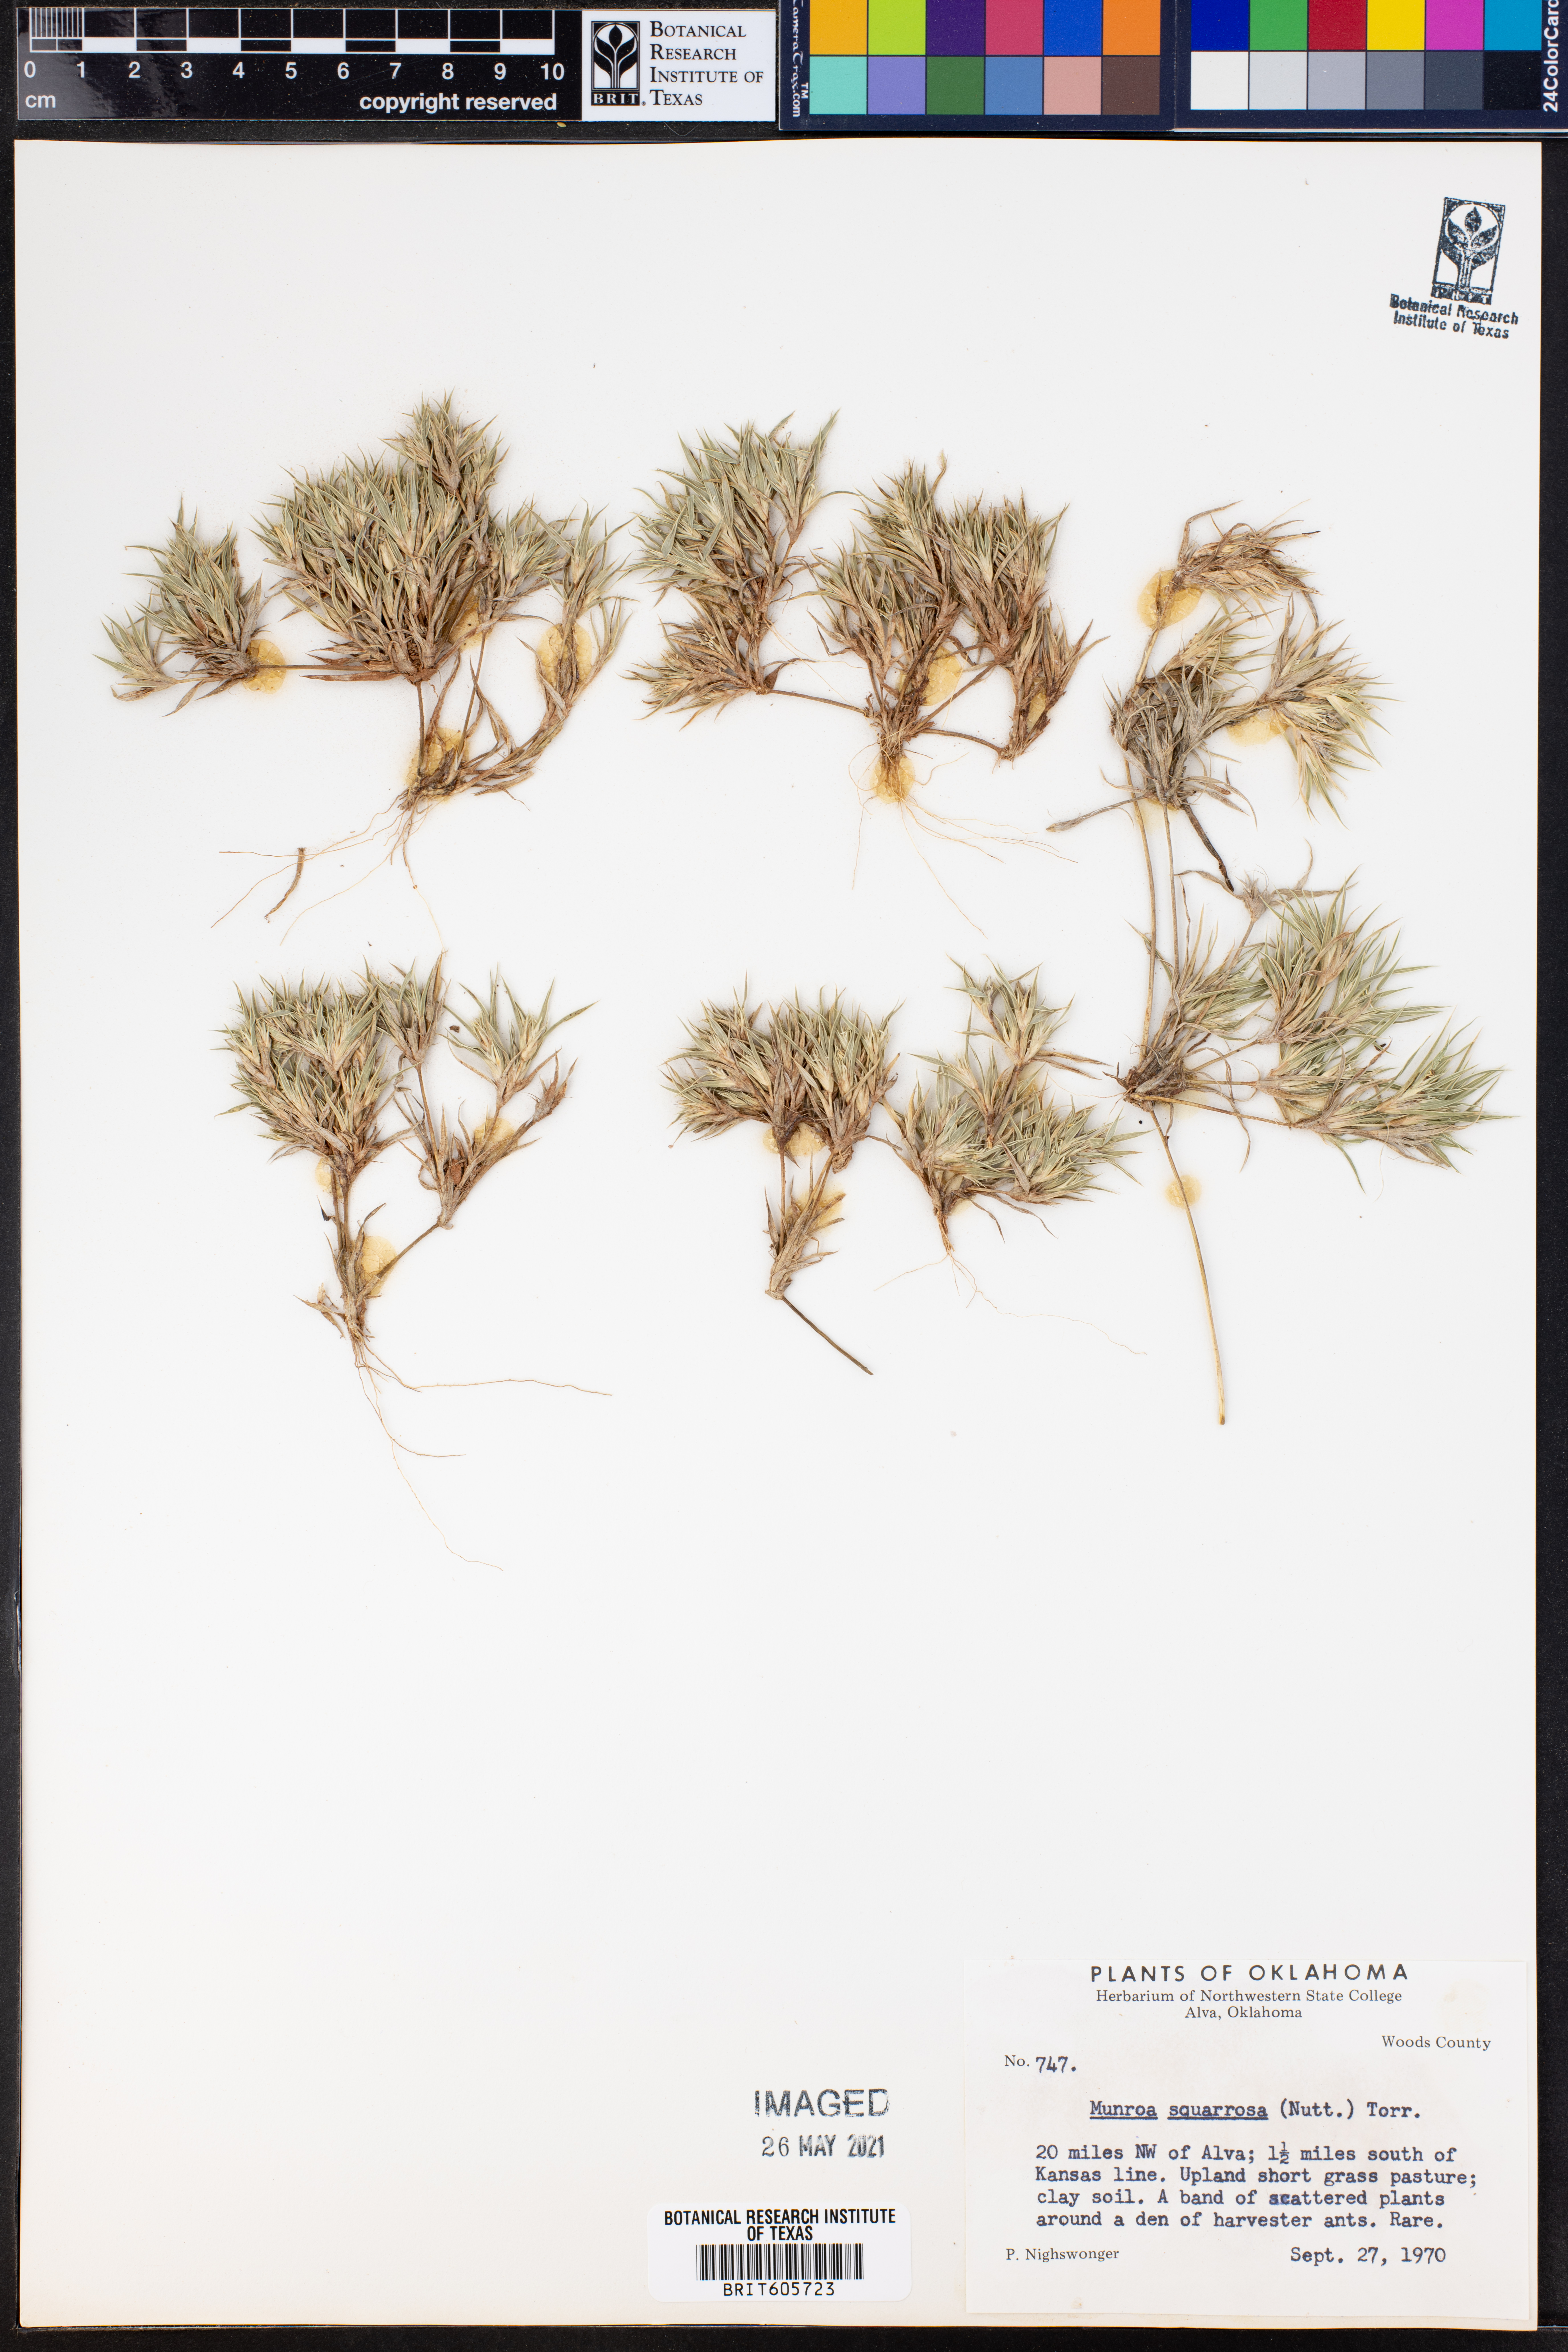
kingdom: Plantae
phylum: Tracheophyta
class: Liliopsida
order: Poales
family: Poaceae
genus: Munroa
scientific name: Munroa squarrosa
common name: False buffalo grass
